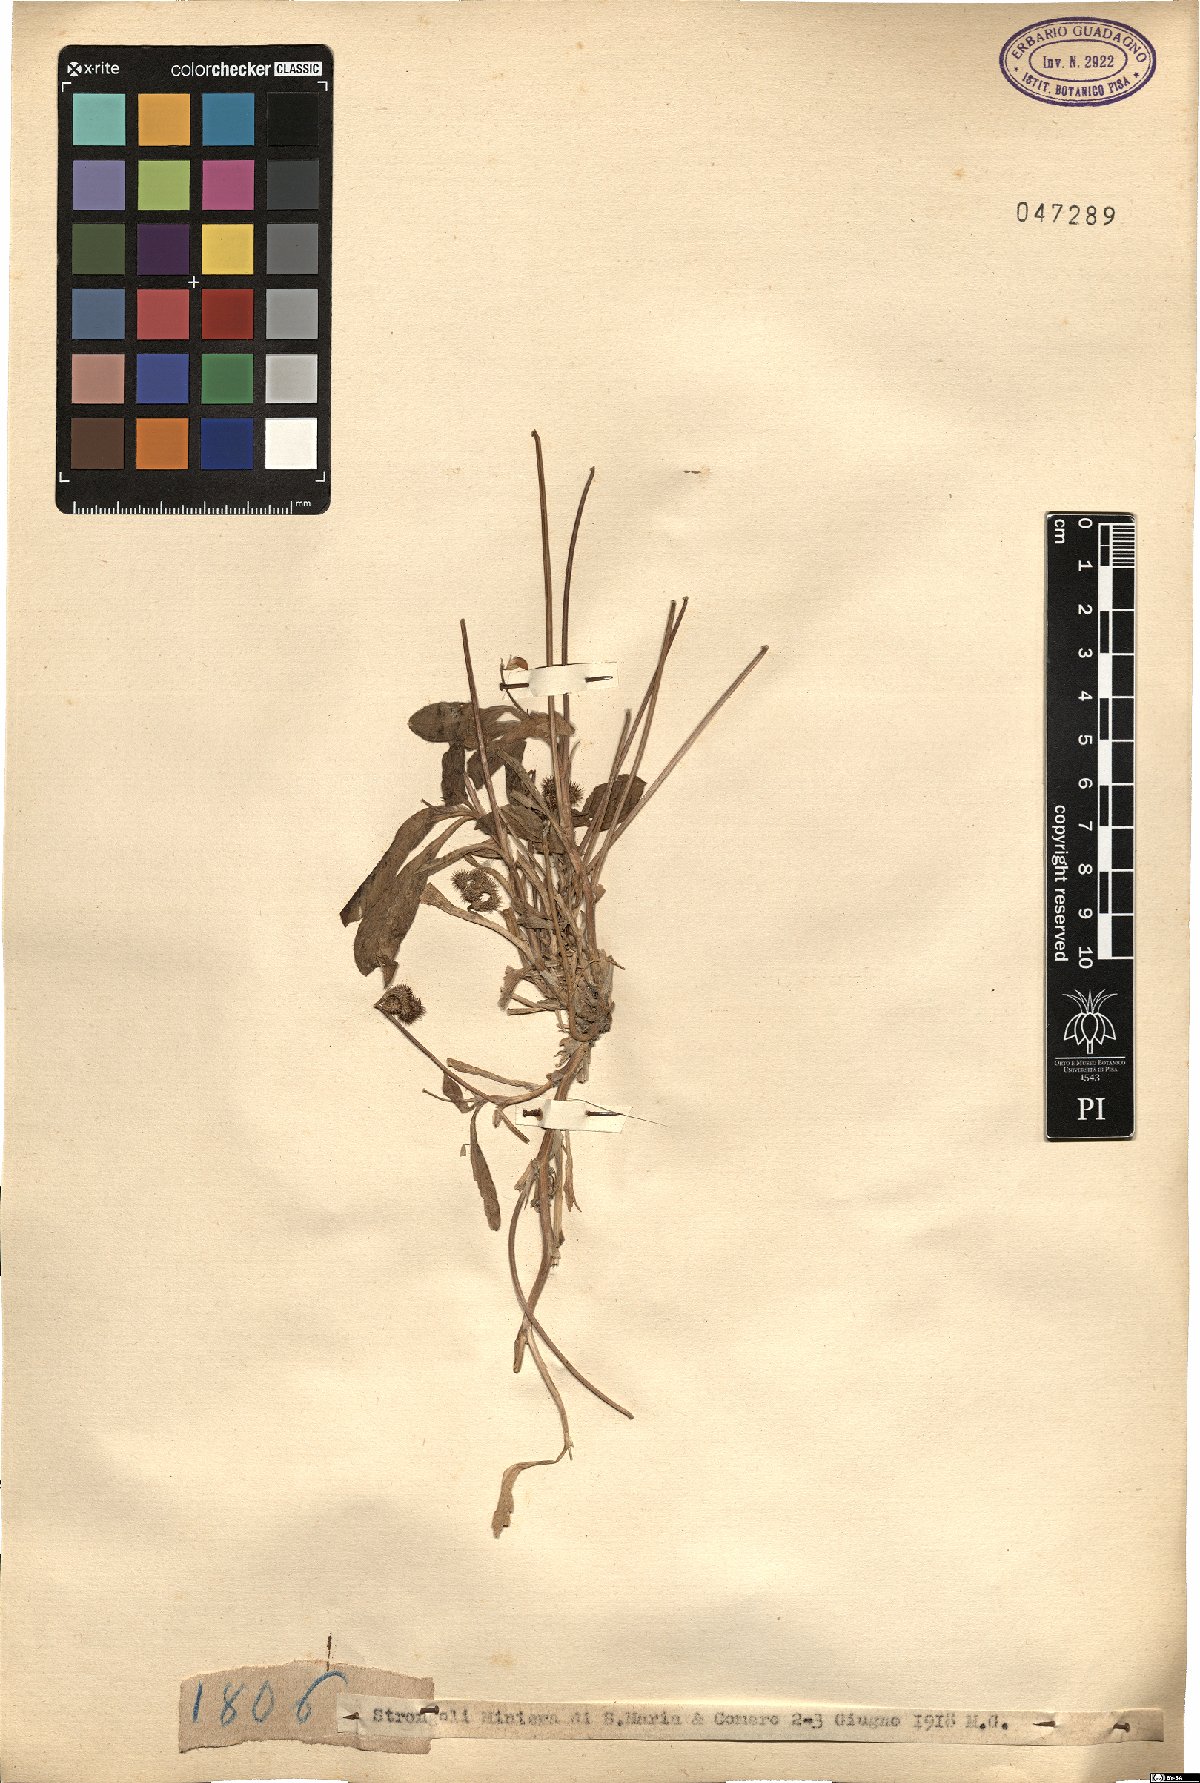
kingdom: Plantae
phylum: Tracheophyta
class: Magnoliopsida
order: Fabales
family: Fabaceae
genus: Scorpiurus
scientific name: Scorpiurus
